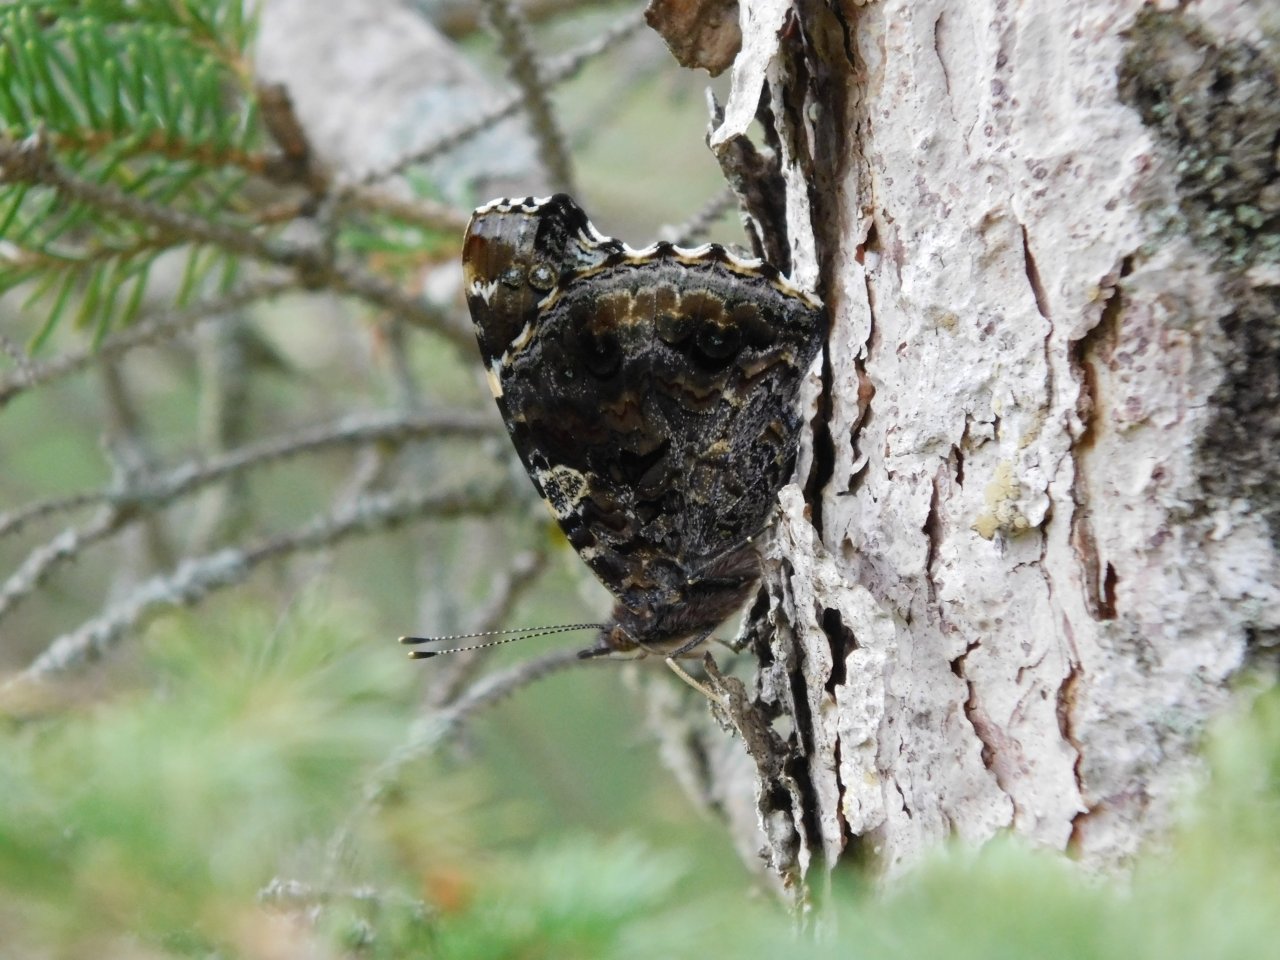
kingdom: Animalia
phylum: Arthropoda
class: Insecta
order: Lepidoptera
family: Nymphalidae
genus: Vanessa
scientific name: Vanessa atalanta
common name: Red Admiral
